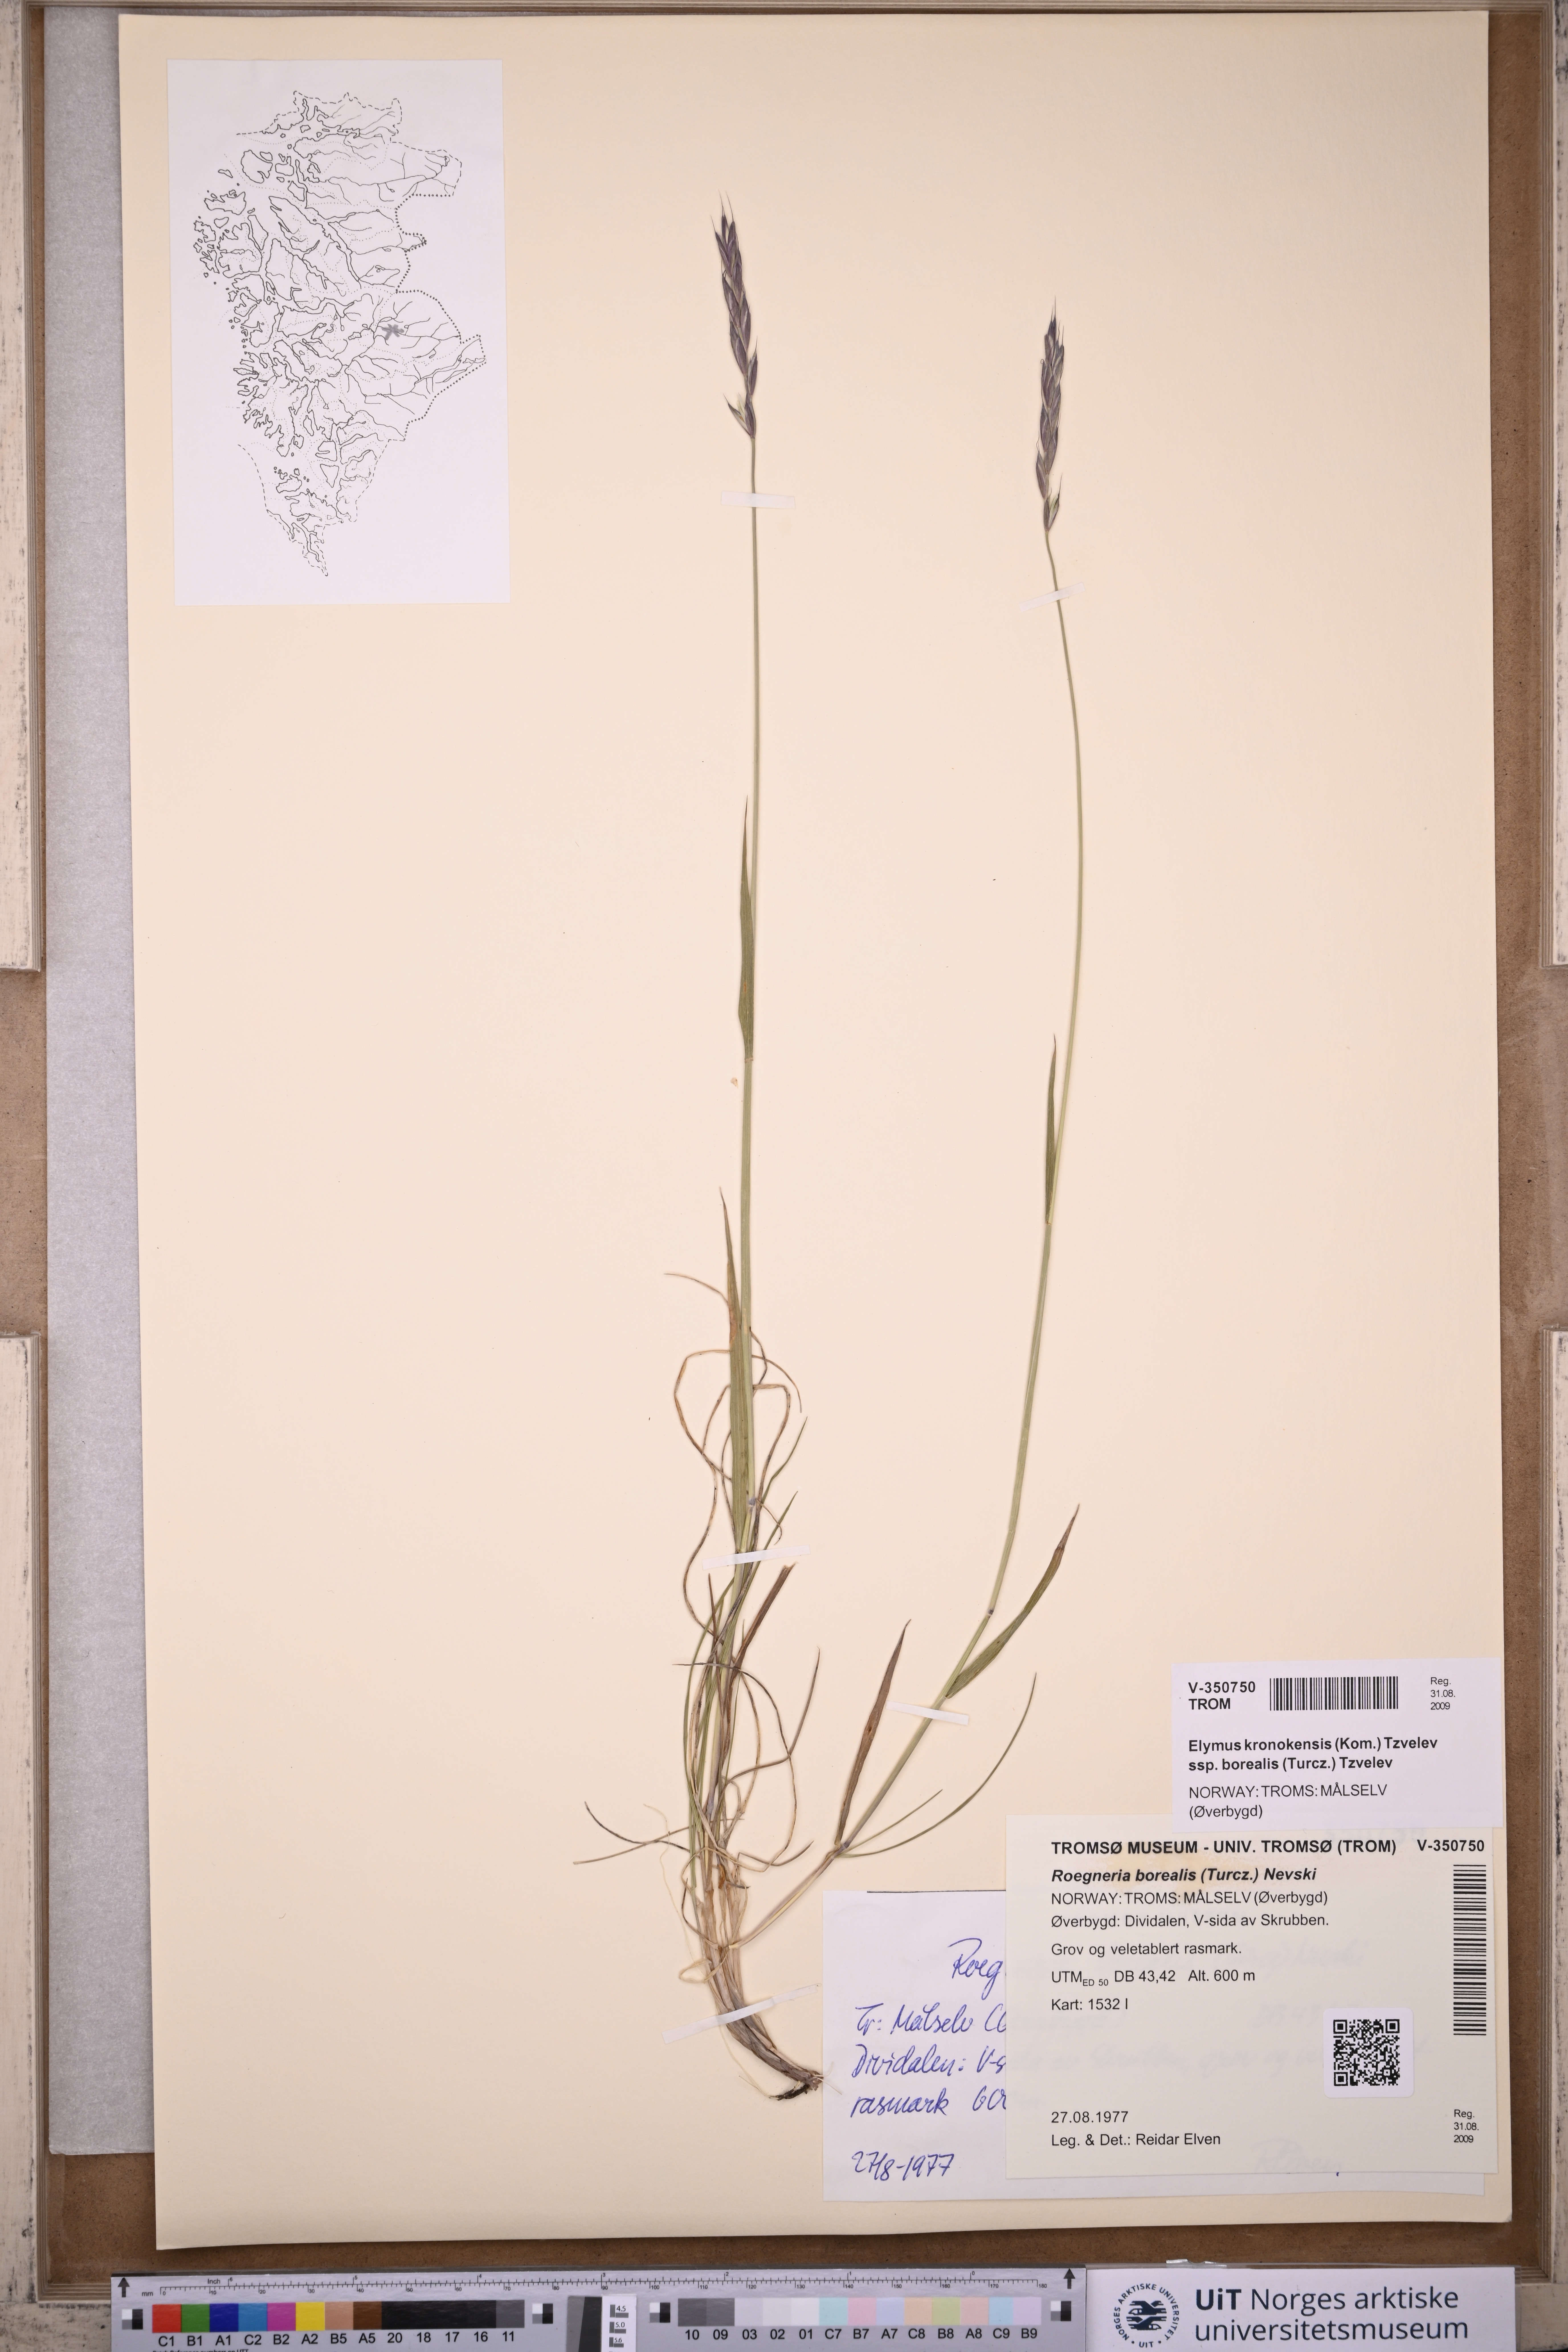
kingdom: Plantae
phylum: Tracheophyta
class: Liliopsida
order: Poales
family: Poaceae
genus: Elymus
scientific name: Elymus macrourus
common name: Northern wheatgrass
